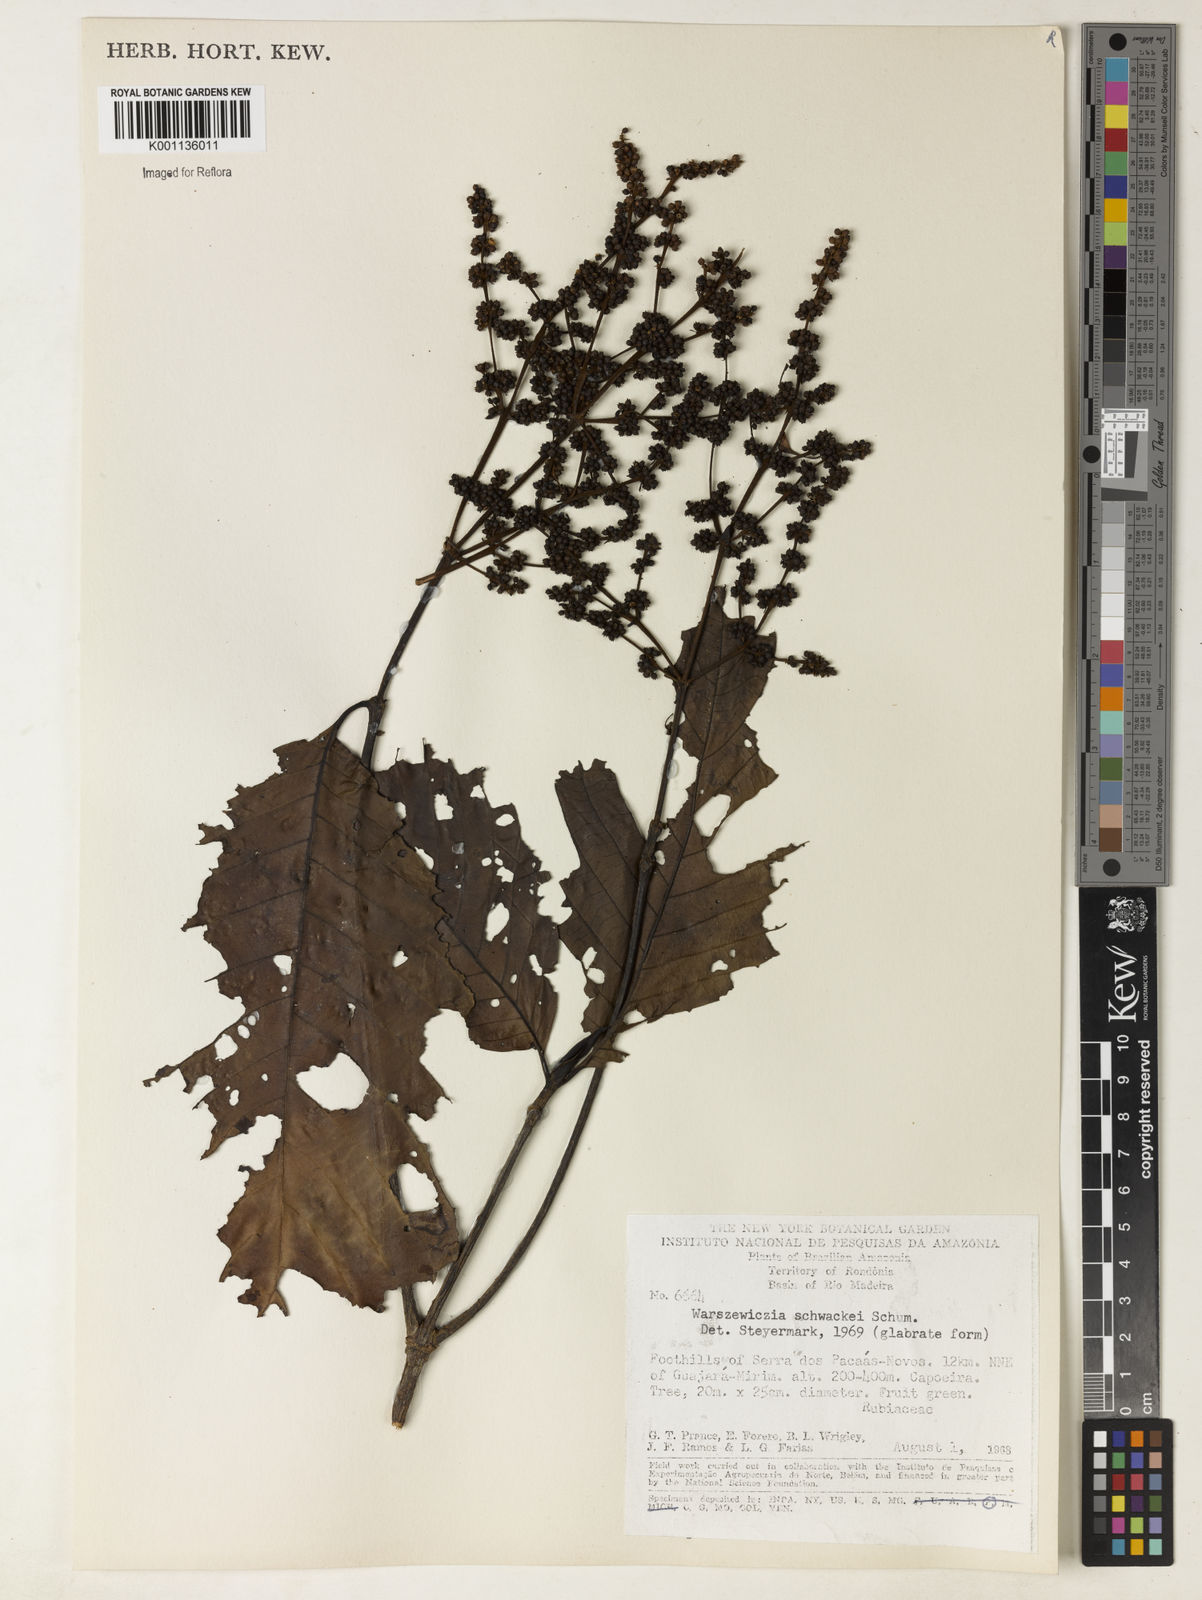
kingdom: Plantae
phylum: Tracheophyta
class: Magnoliopsida
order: Gentianales
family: Rubiaceae
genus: Warszewiczia
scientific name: Warszewiczia schwackei
